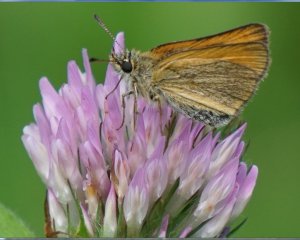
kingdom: Animalia
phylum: Arthropoda
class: Insecta
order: Lepidoptera
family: Hesperiidae
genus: Thymelicus
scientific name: Thymelicus lineola
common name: European Skipper
